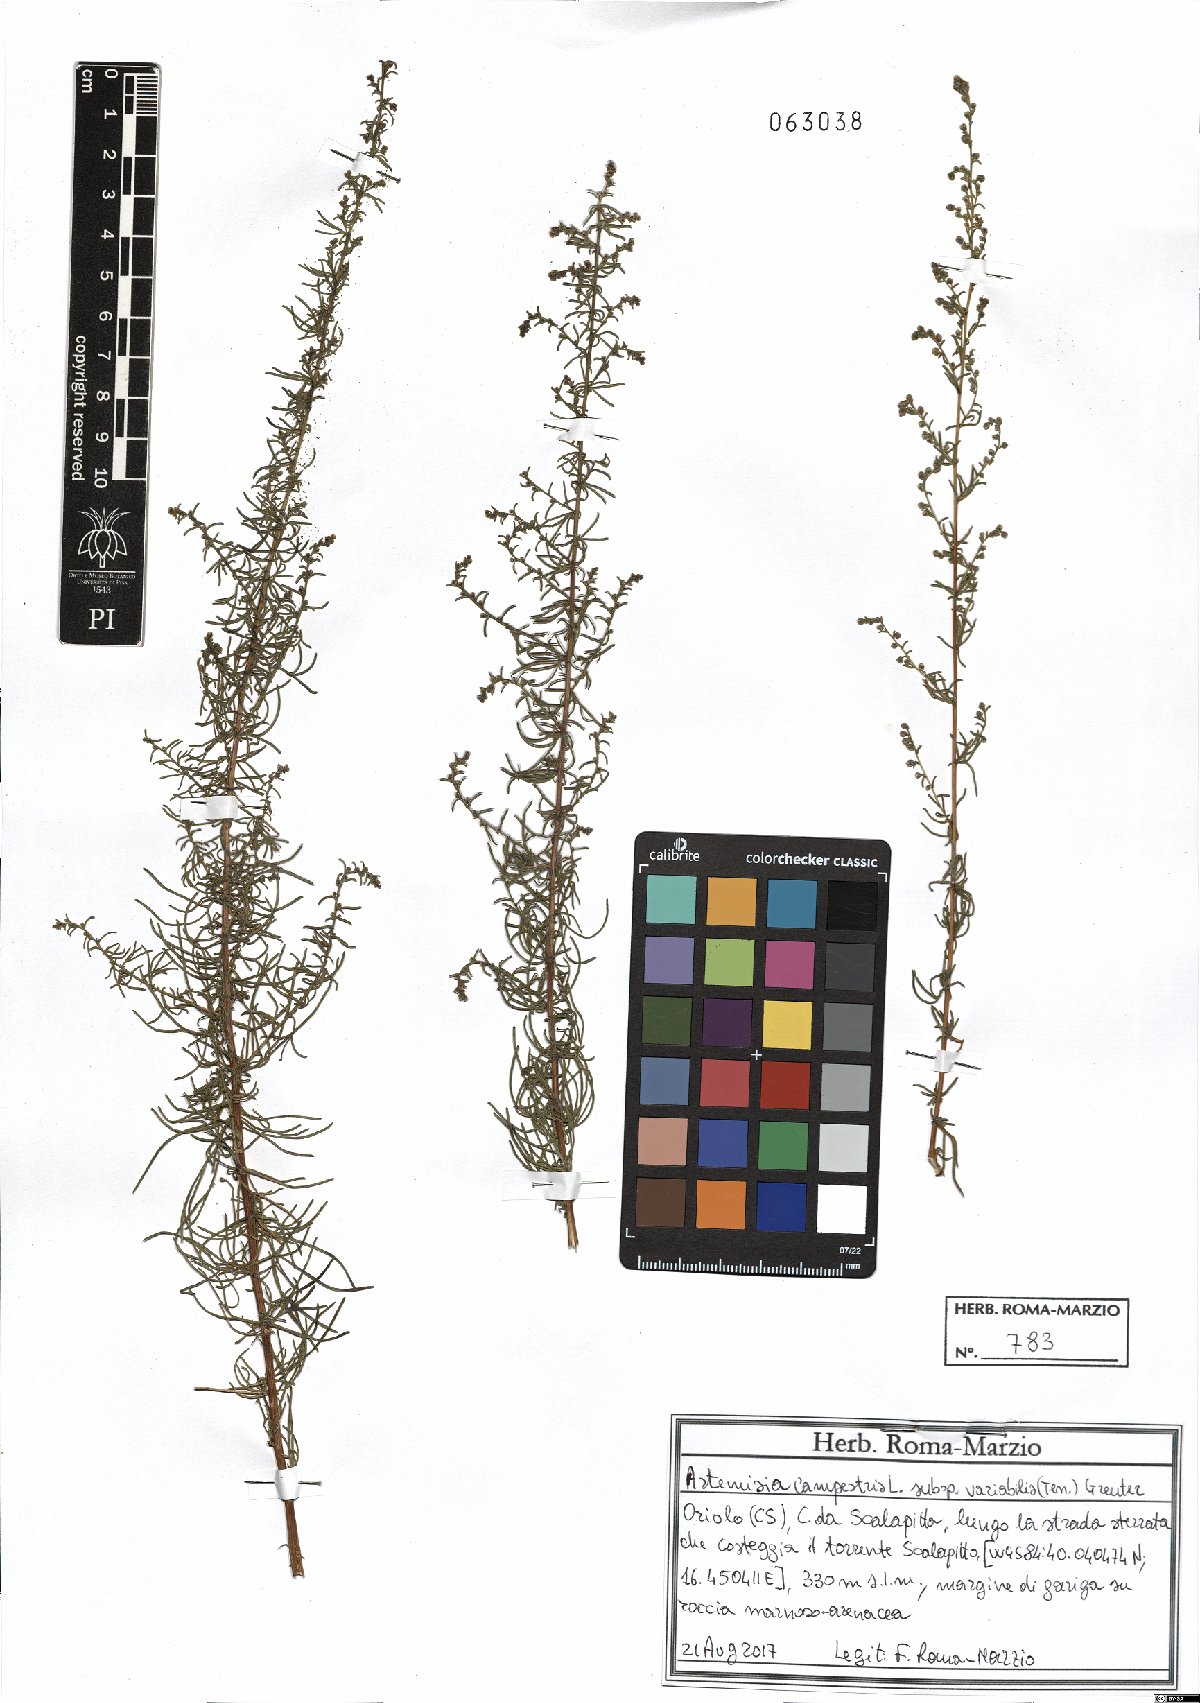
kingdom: Plantae
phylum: Tracheophyta
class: Magnoliopsida
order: Asterales
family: Asteraceae
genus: Artemisia
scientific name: Artemisia campestris
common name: Field wormwood
